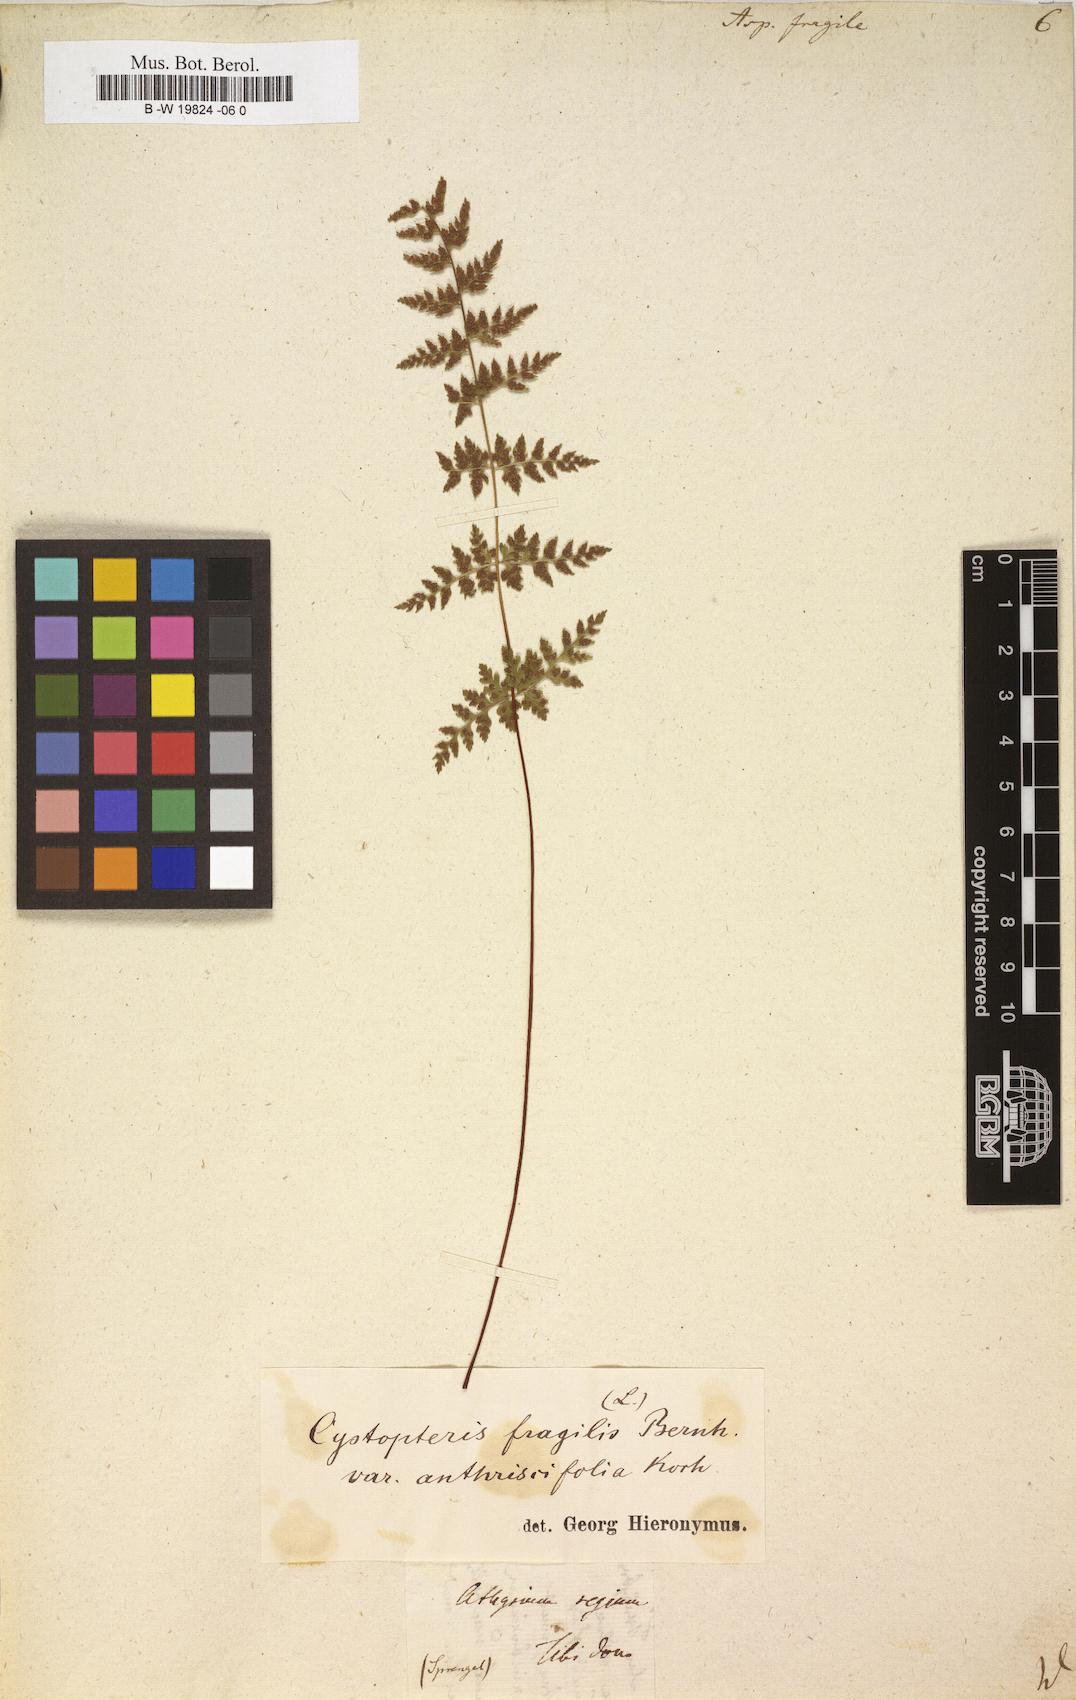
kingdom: Plantae
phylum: Tracheophyta
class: Polypodiopsida
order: Polypodiales
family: Cystopteridaceae
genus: Cystopteris
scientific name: Cystopteris fragilis
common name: Brittle bladder fern
